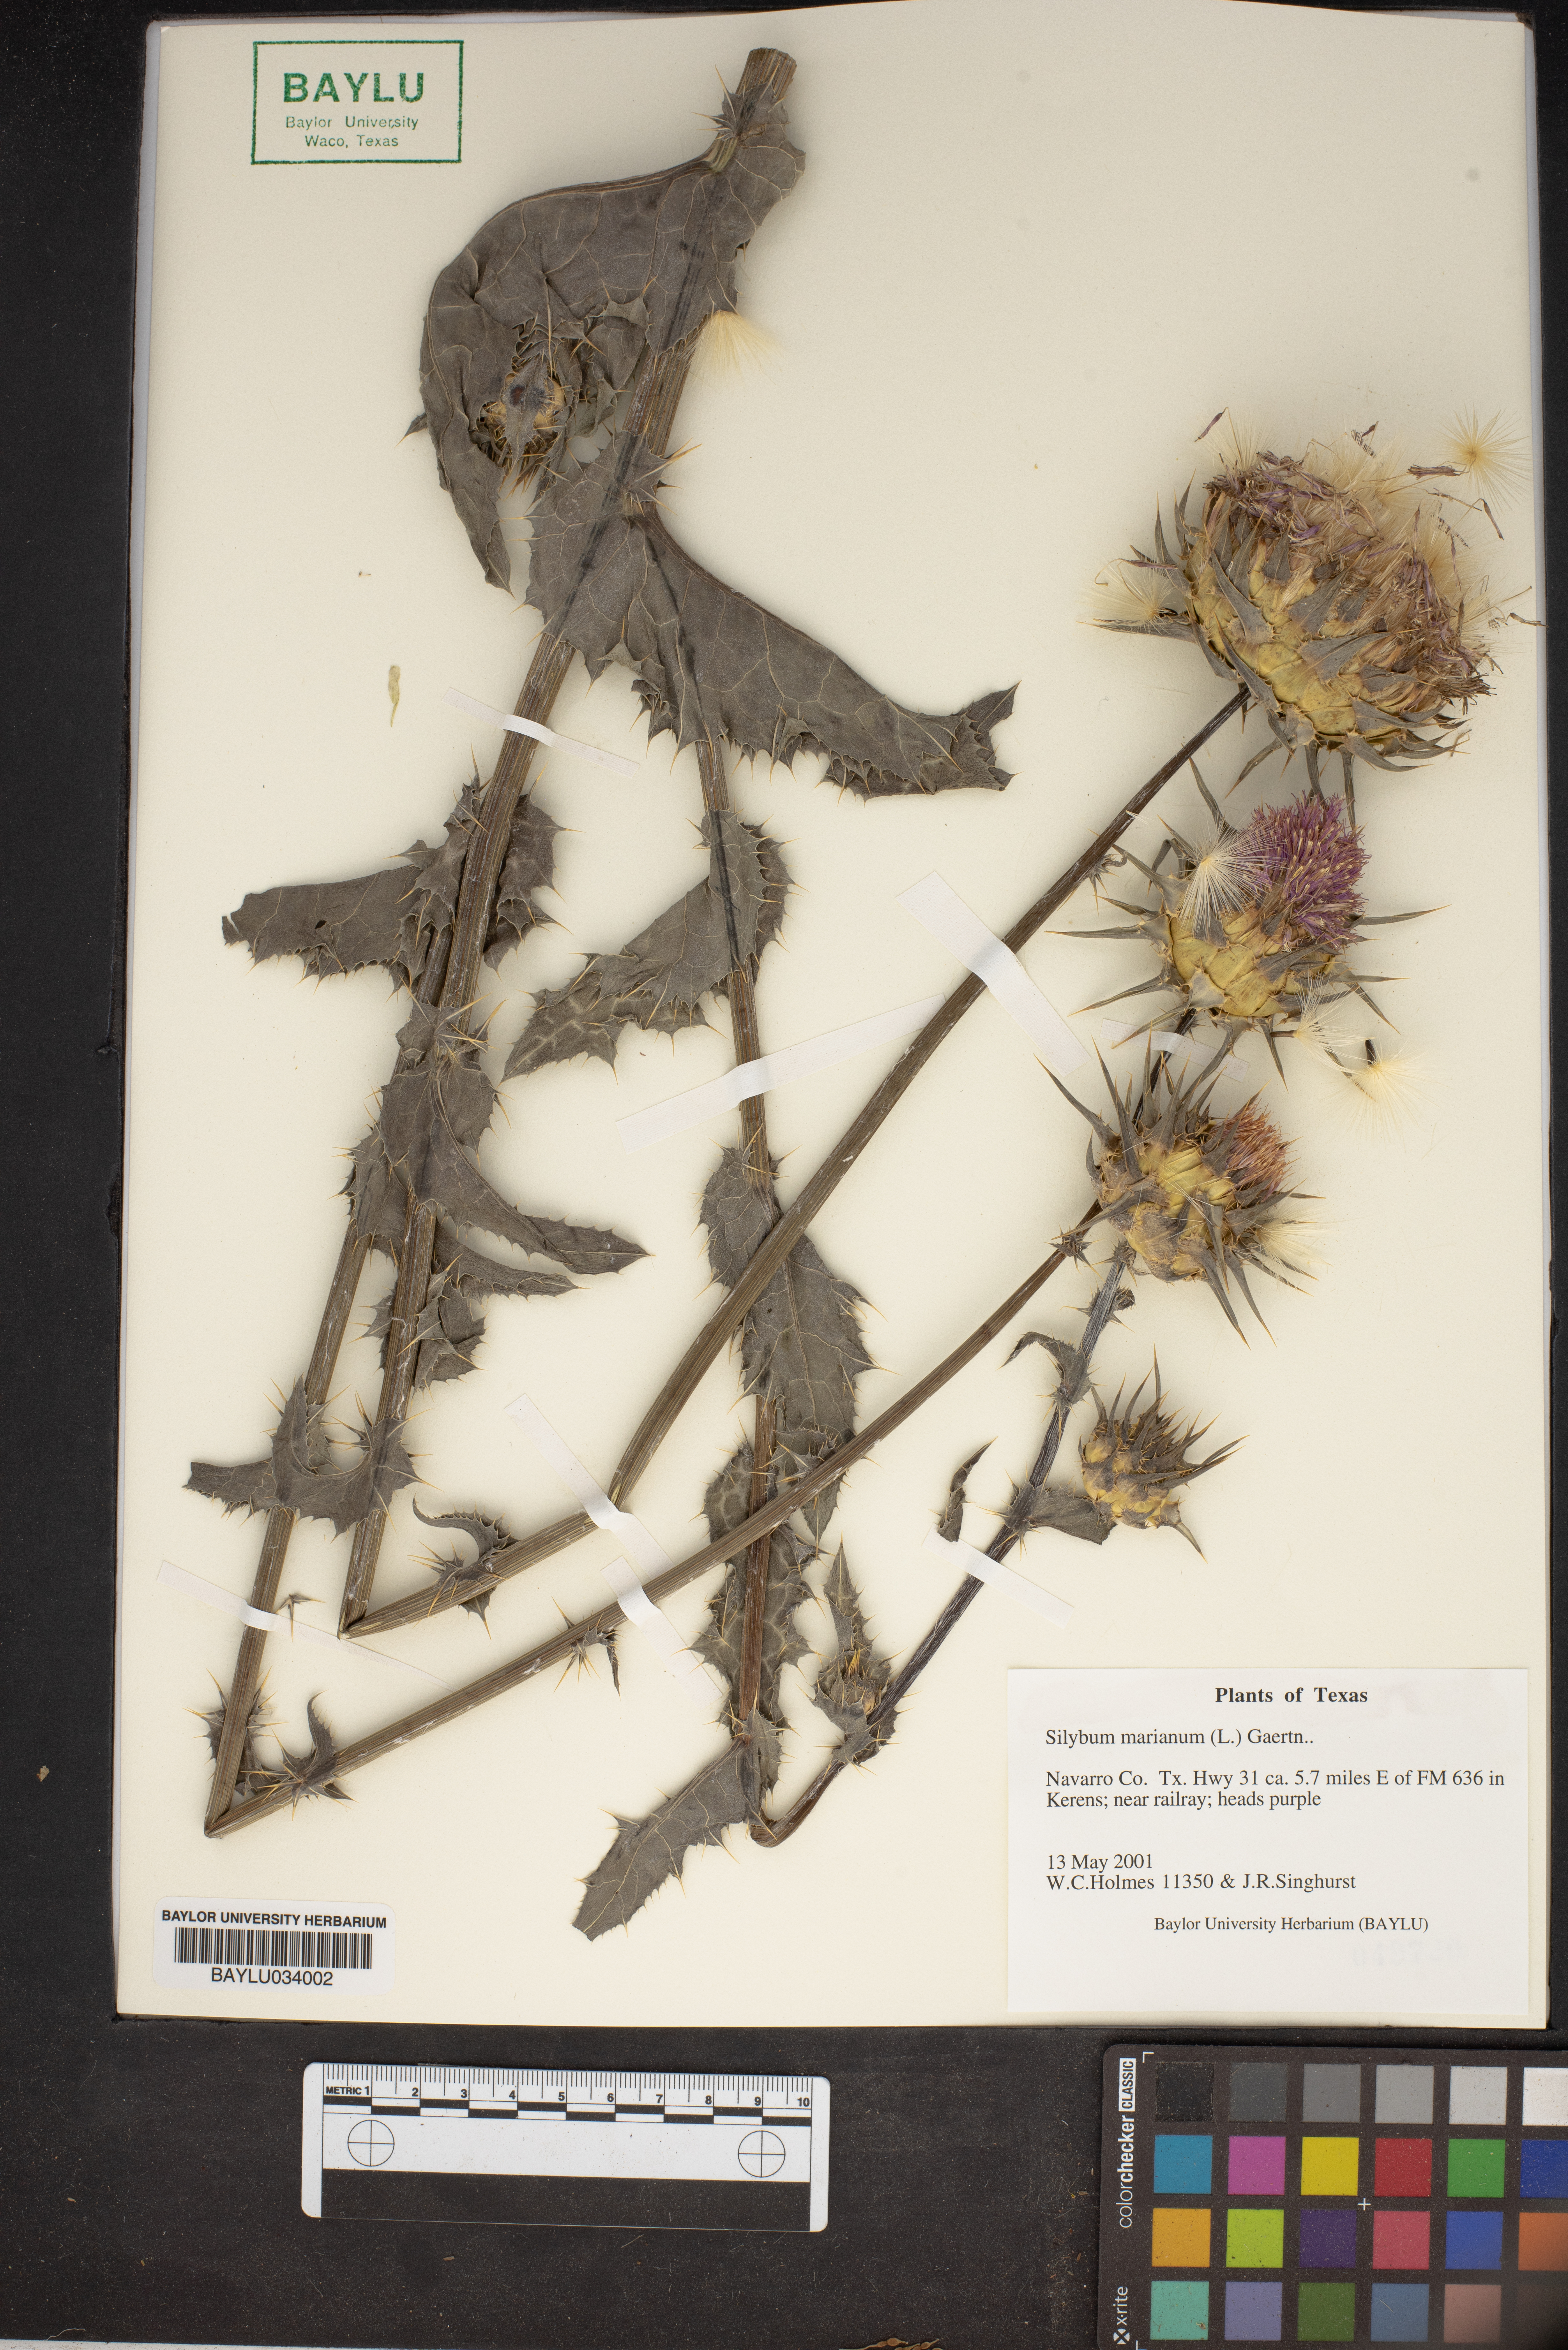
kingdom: Plantae
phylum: Tracheophyta
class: Magnoliopsida
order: Asterales
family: Asteraceae
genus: Silybum
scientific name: Silybum marianum
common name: Milk thistle
